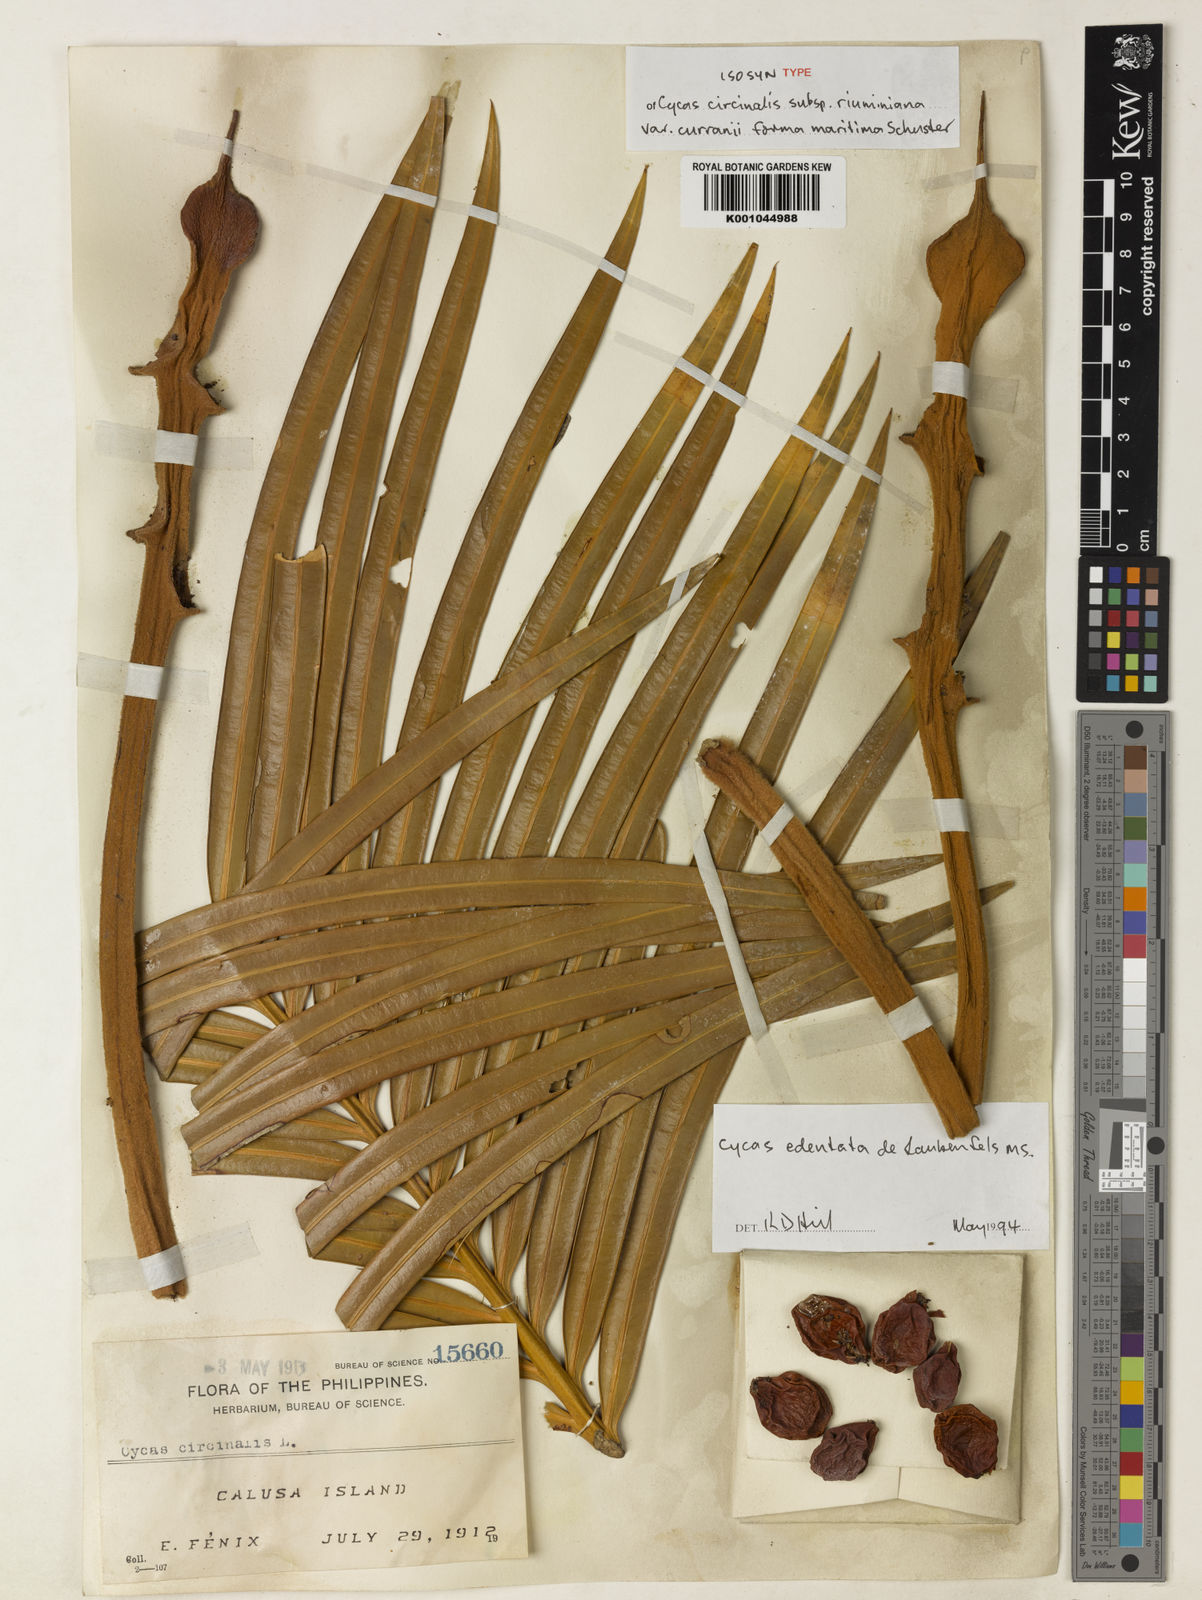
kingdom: Plantae
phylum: Tracheophyta
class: Cycadopsida
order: Cycadales
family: Cycadaceae
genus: Cycas
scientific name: Cycas circinalis
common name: Queen sago
